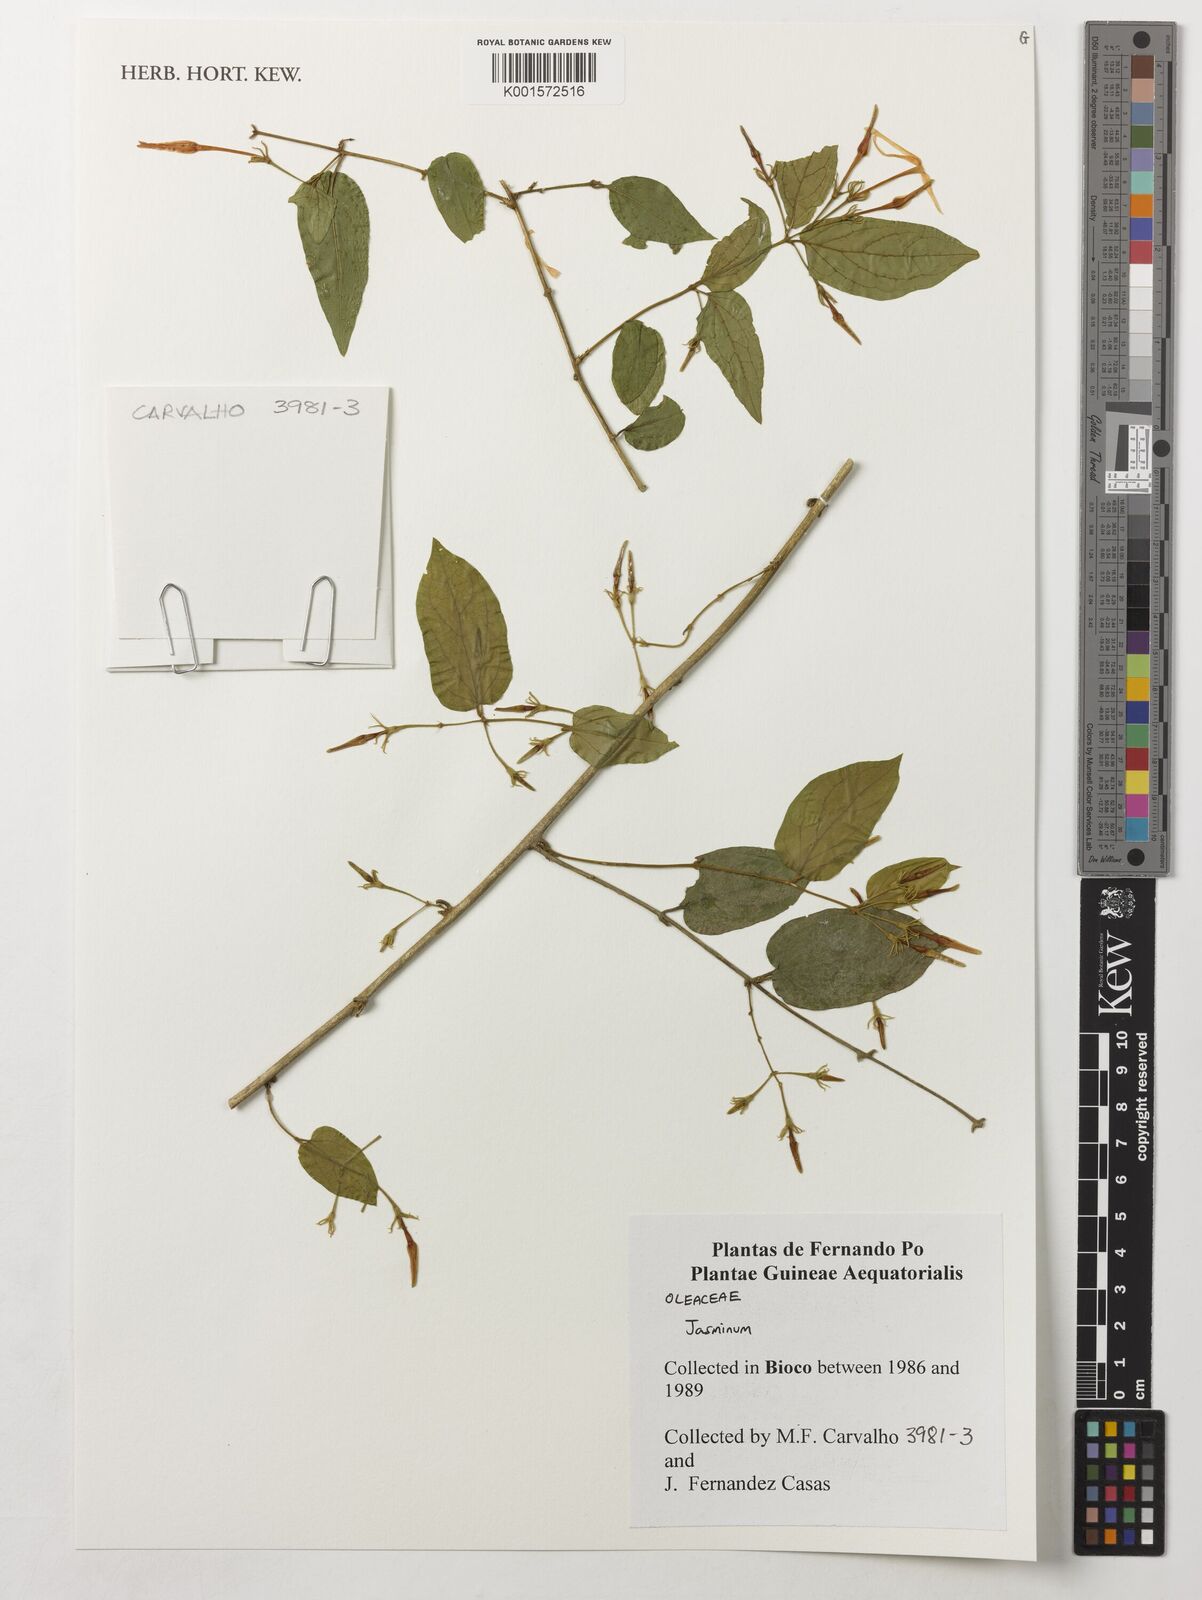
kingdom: Plantae
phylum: Tracheophyta
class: Magnoliopsida
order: Lamiales
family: Oleaceae
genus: Jasminum
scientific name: Jasminum
